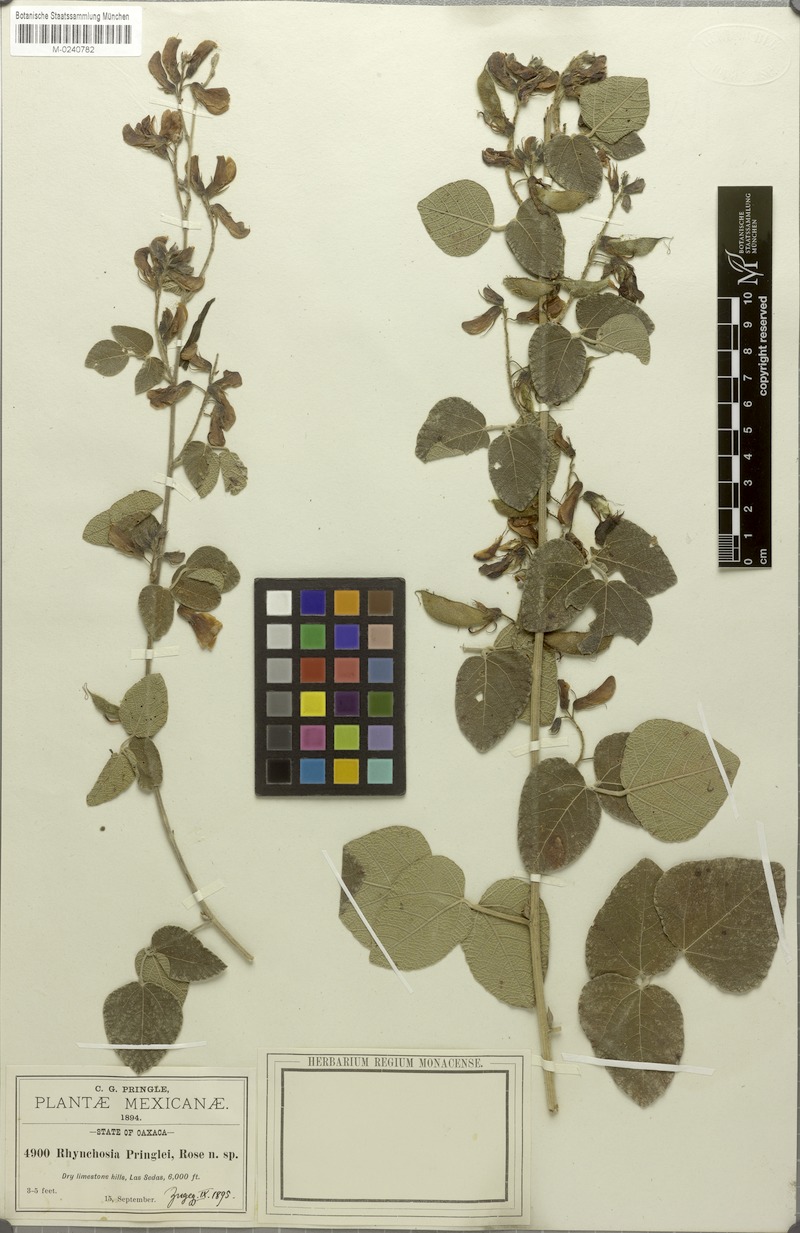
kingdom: Plantae
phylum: Tracheophyta
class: Magnoliopsida
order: Fabales
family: Fabaceae
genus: Rhynchosia
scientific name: Rhynchosia pringlei
